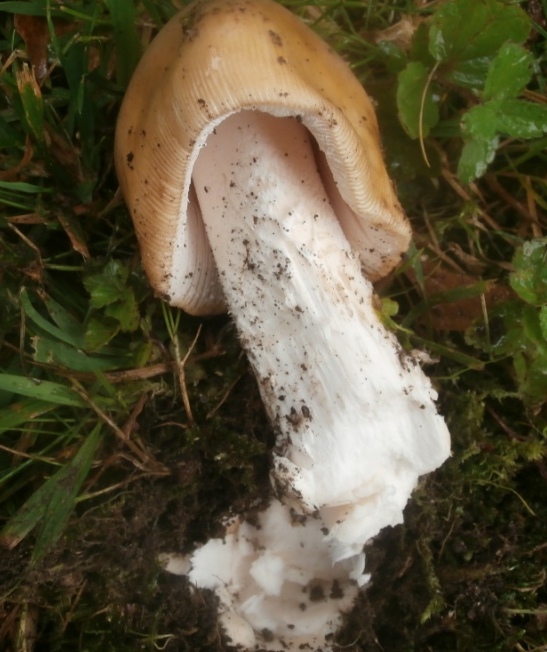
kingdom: Fungi
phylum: Basidiomycota
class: Agaricomycetes
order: Agaricales
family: Amanitaceae
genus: Amanita
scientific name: Amanita lividopallescens
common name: afblegende kam-fluesvamp
